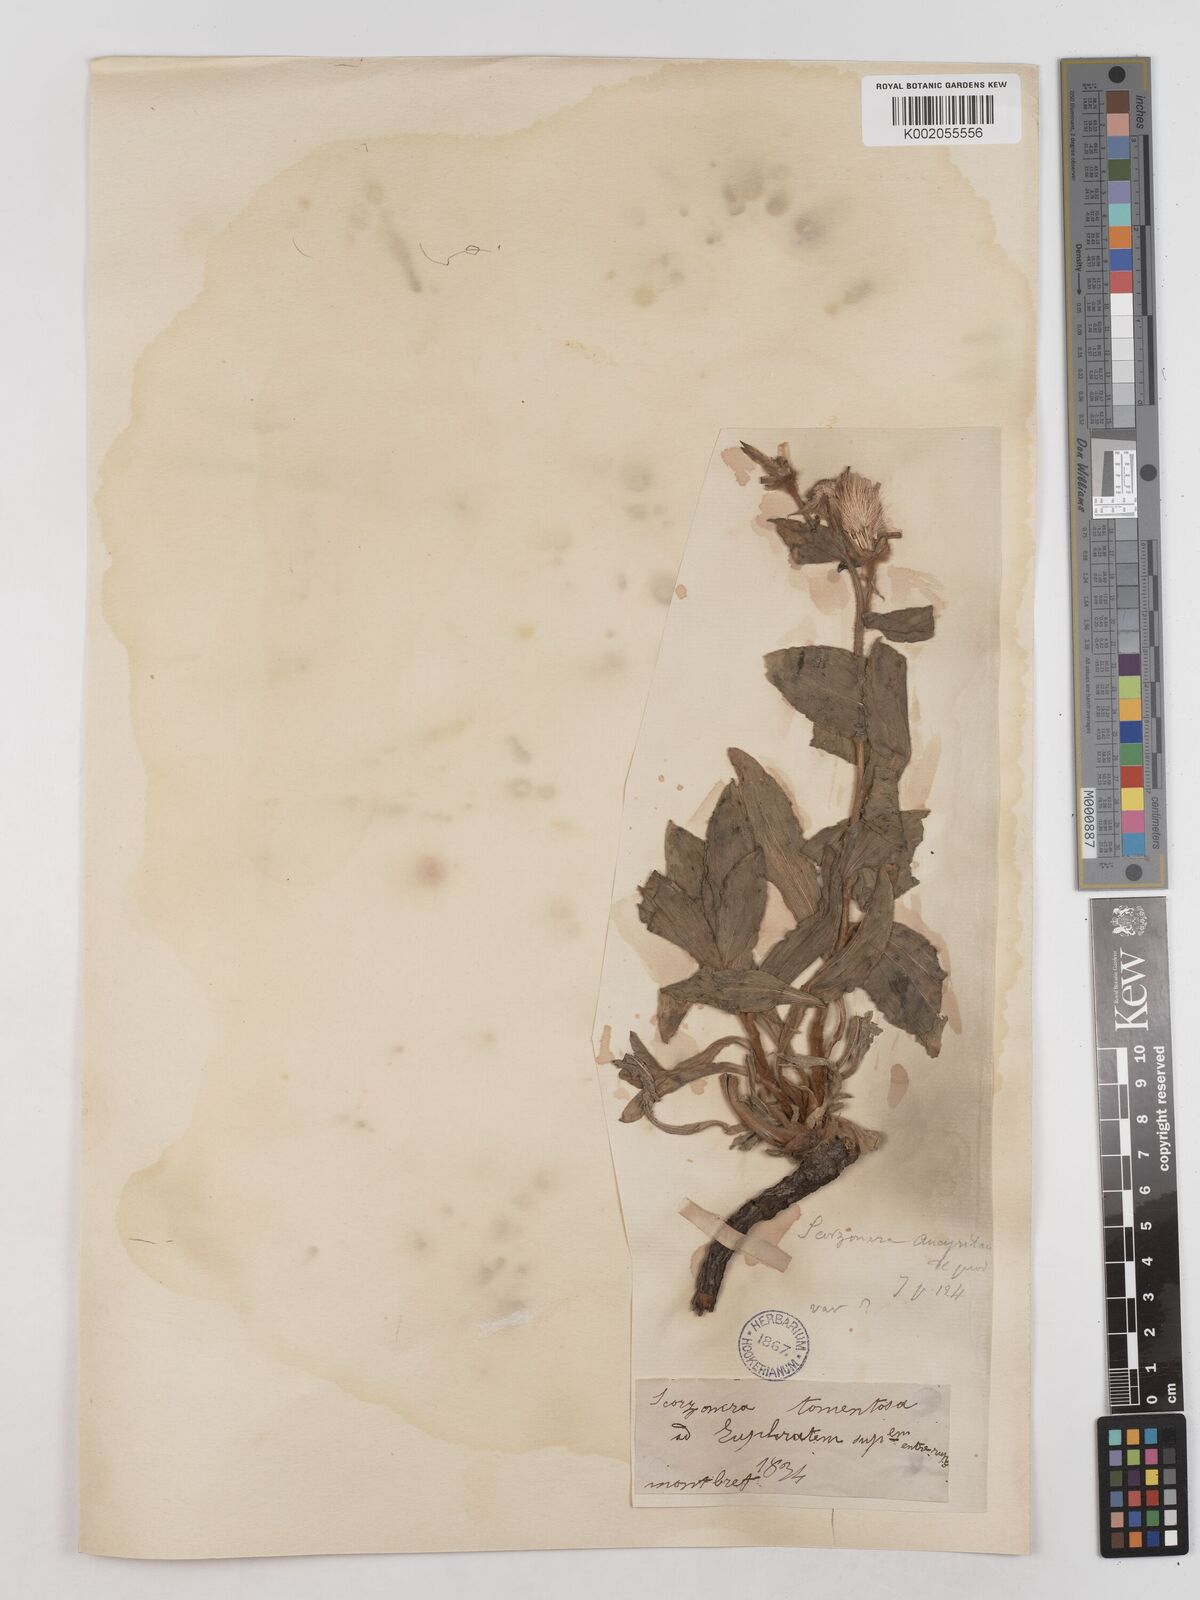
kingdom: Plantae
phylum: Tracheophyta
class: Magnoliopsida
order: Asterales
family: Asteraceae
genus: Candollea
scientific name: Candollea mollis
